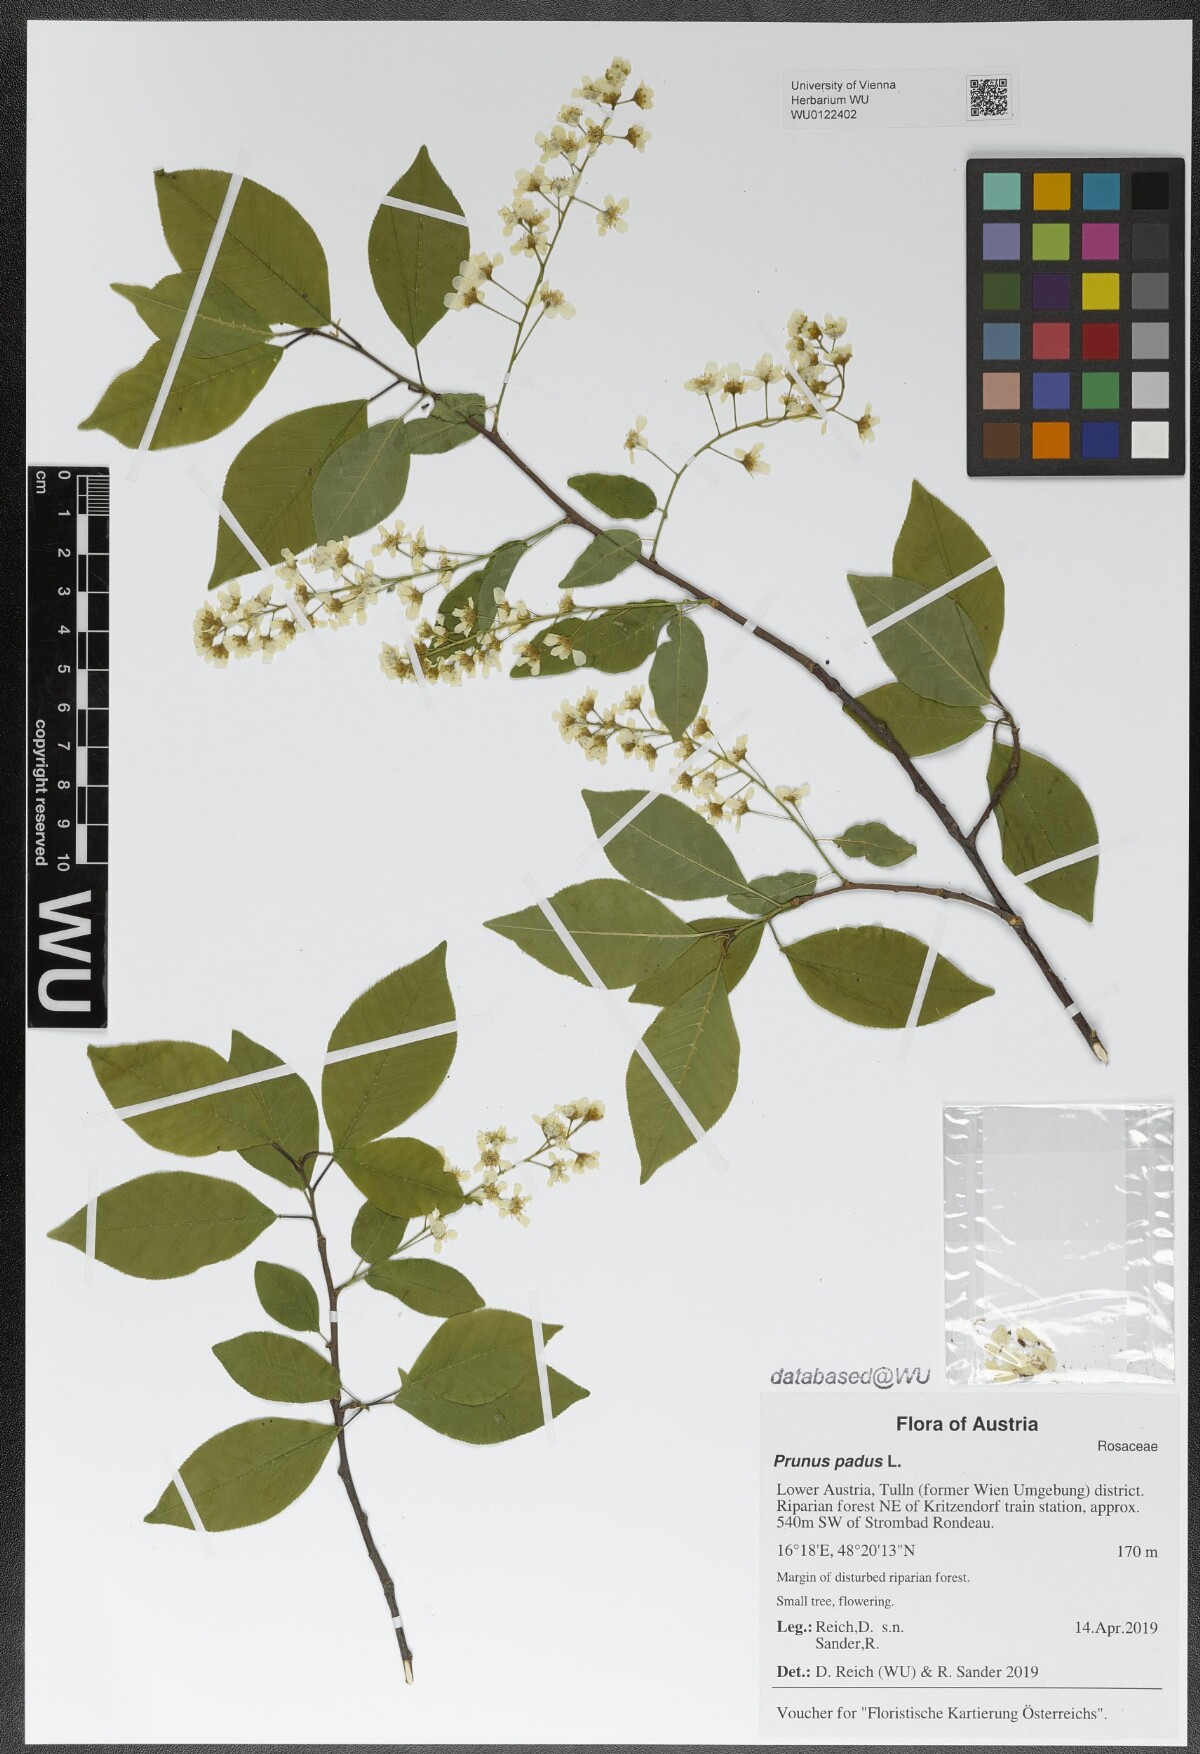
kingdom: Plantae
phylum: Tracheophyta
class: Magnoliopsida
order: Rosales
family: Rosaceae
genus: Prunus
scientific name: Prunus padus
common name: Bird cherry
